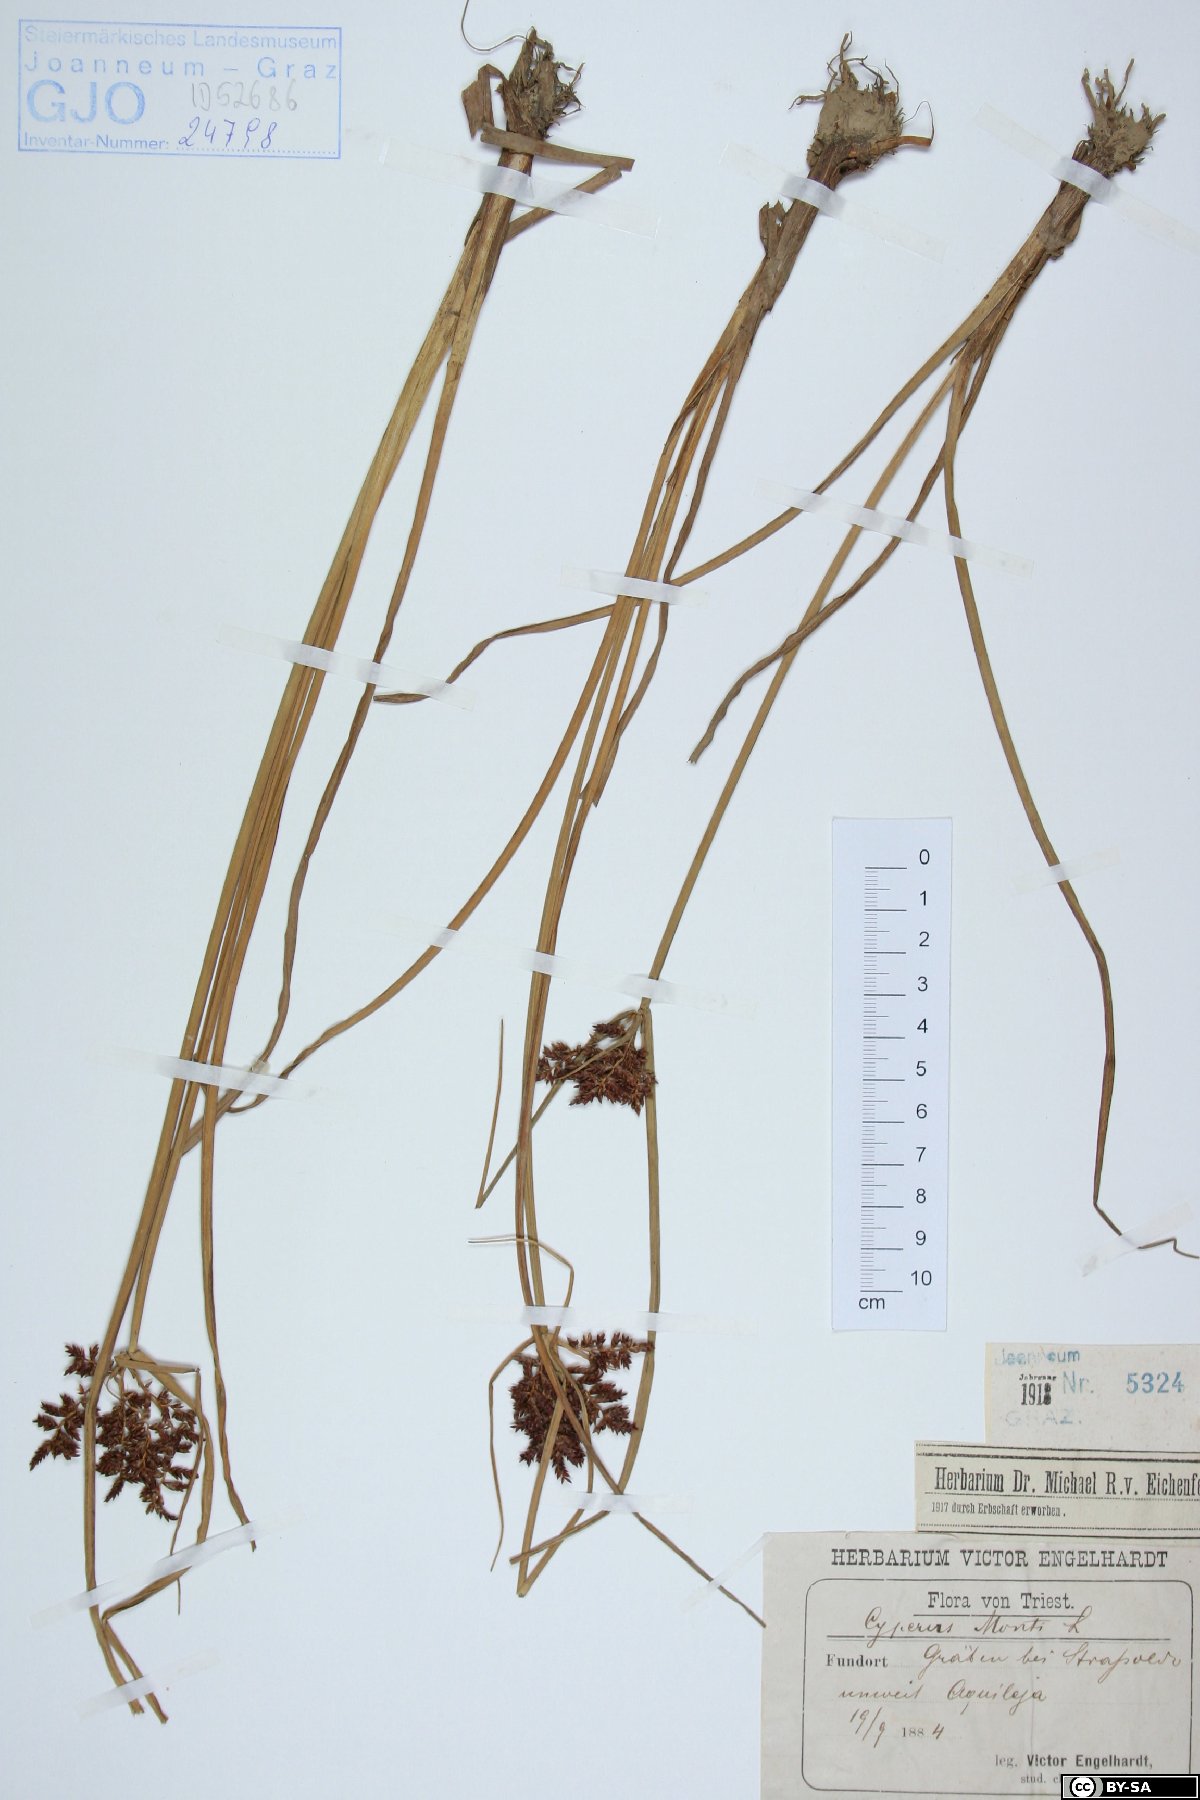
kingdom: Plantae
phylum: Tracheophyta
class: Liliopsida
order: Poales
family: Cyperaceae
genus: Cyperus
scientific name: Cyperus serotinus
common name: Tidalmarsh flatsedge
